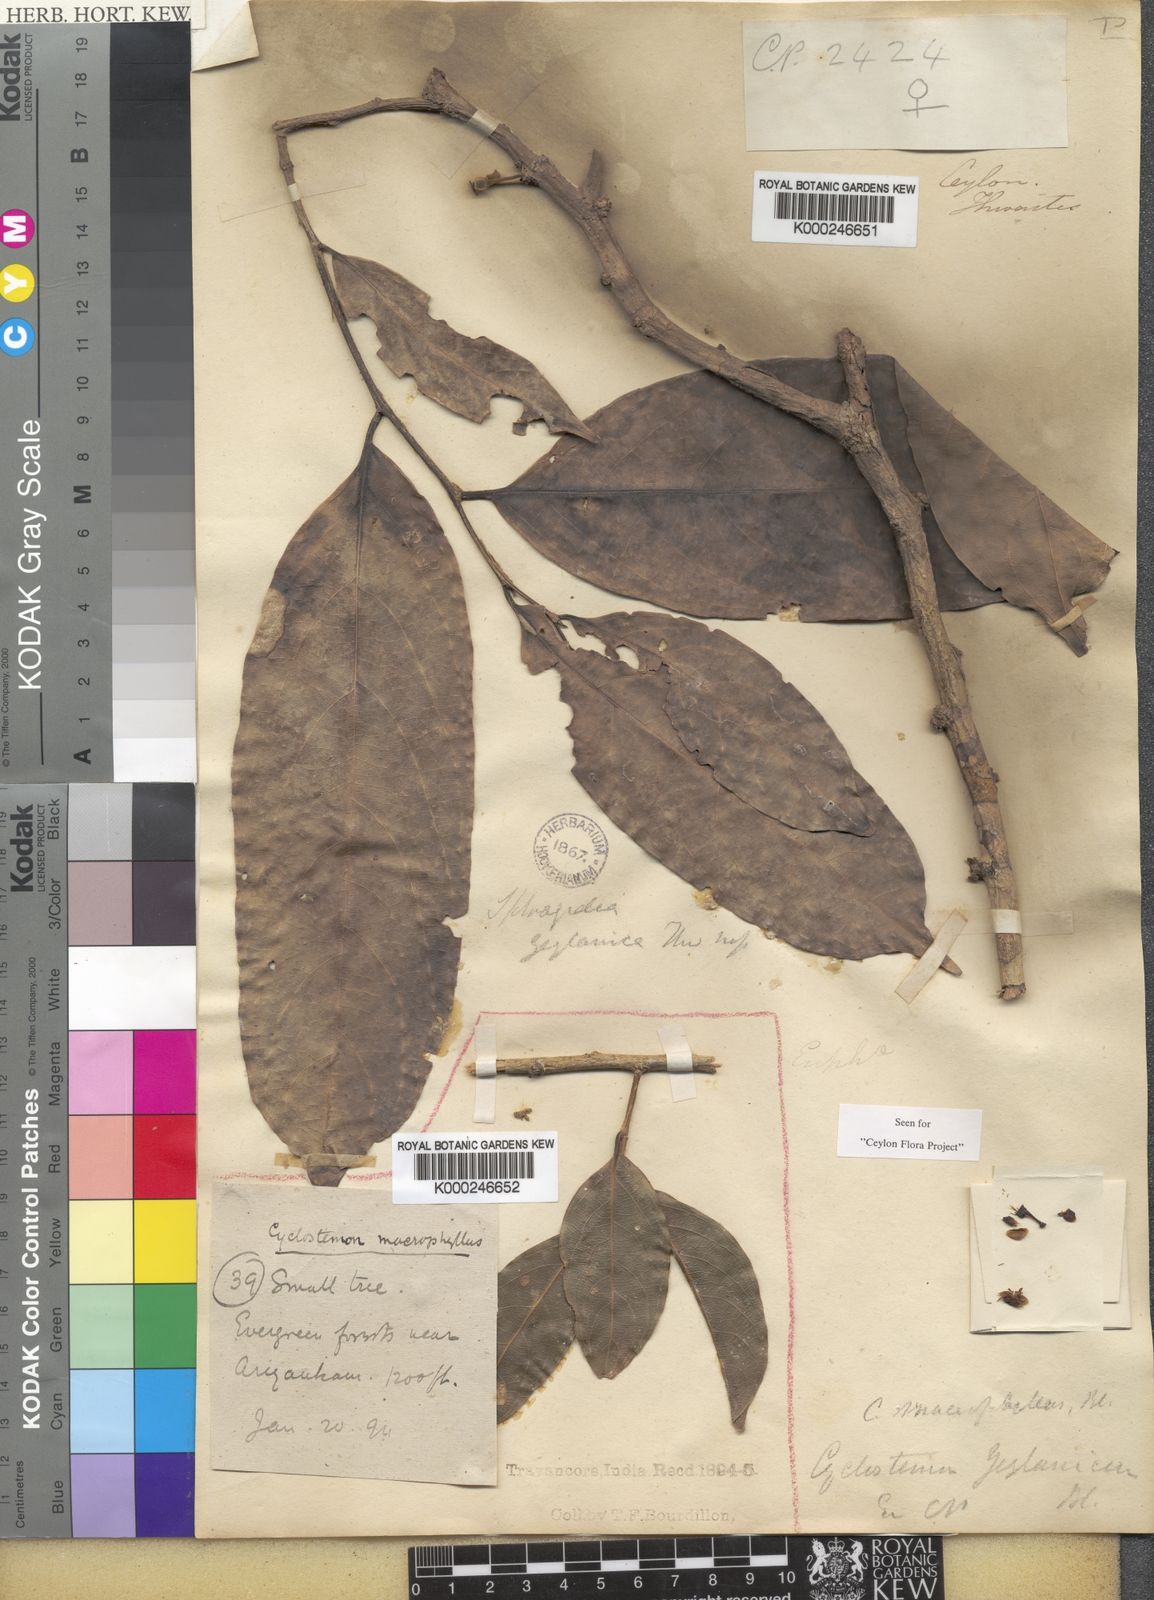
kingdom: Plantae
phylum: Tracheophyta
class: Magnoliopsida
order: Malpighiales
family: Putranjivaceae
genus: Drypetes
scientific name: Drypetes longifolia
